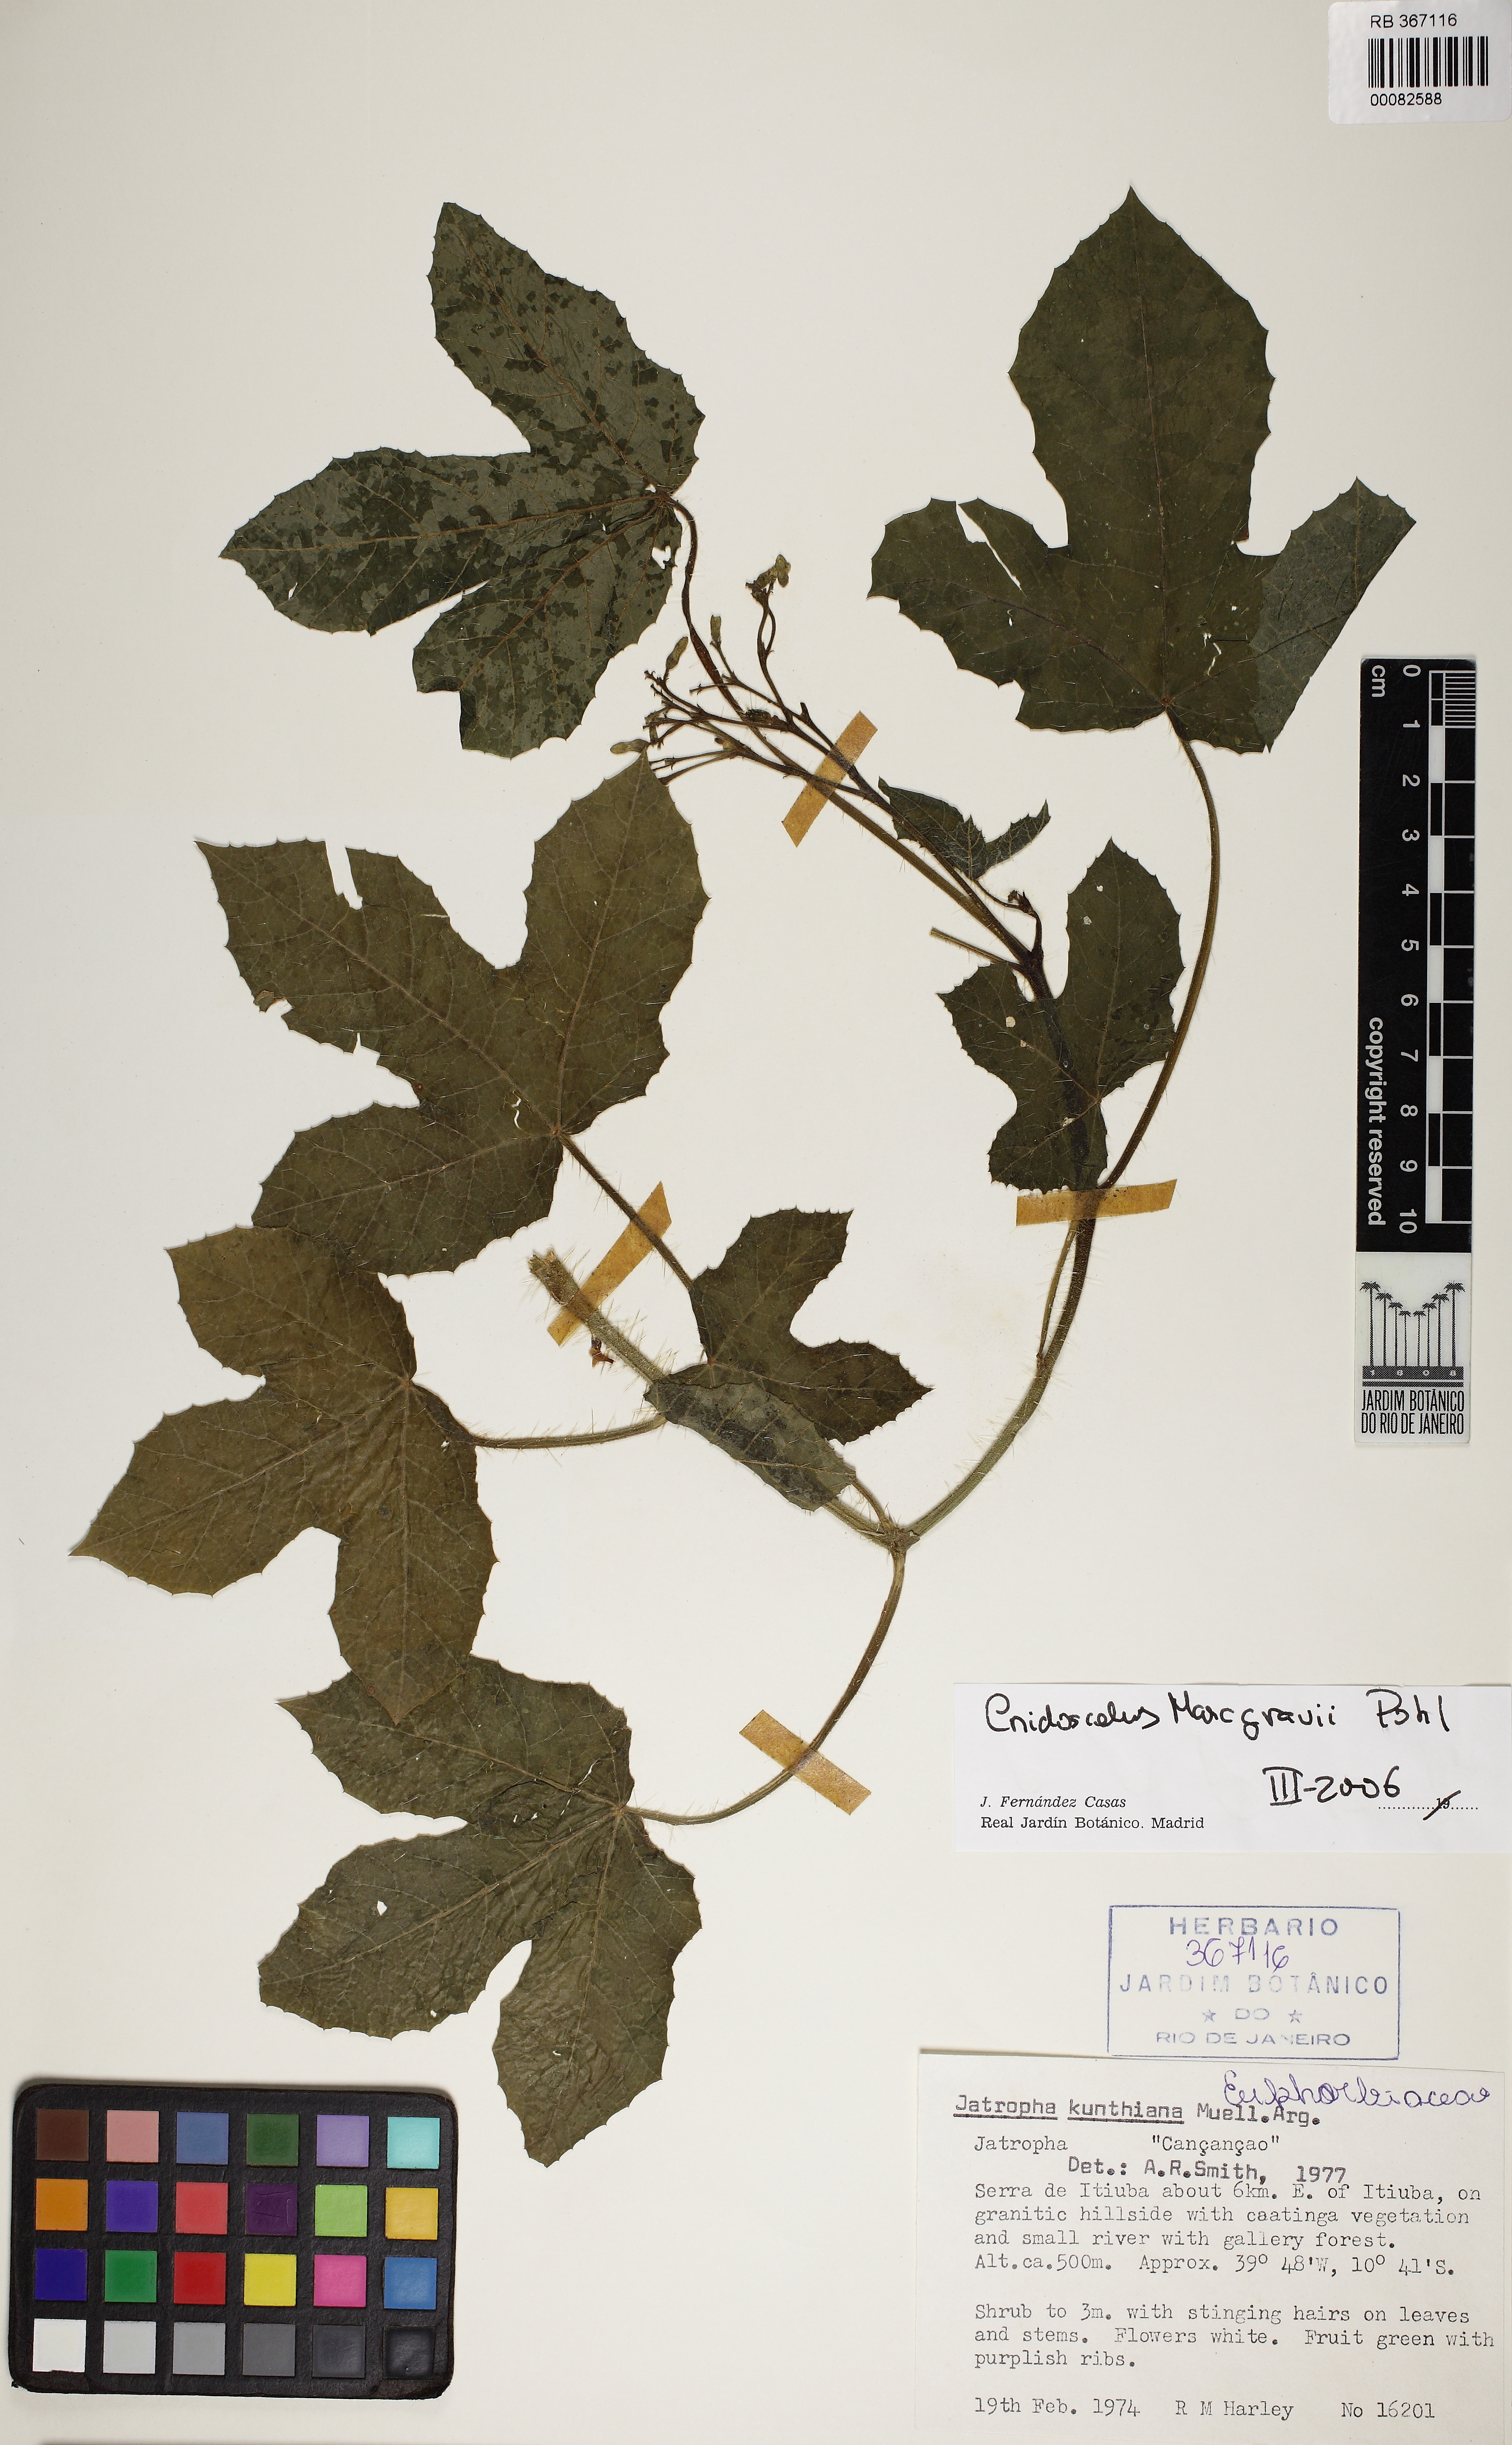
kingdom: Plantae
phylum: Tracheophyta
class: Magnoliopsida
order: Malpighiales
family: Euphorbiaceae
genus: Cnidoscolus
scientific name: Cnidoscolus urens
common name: Bull-nettle
